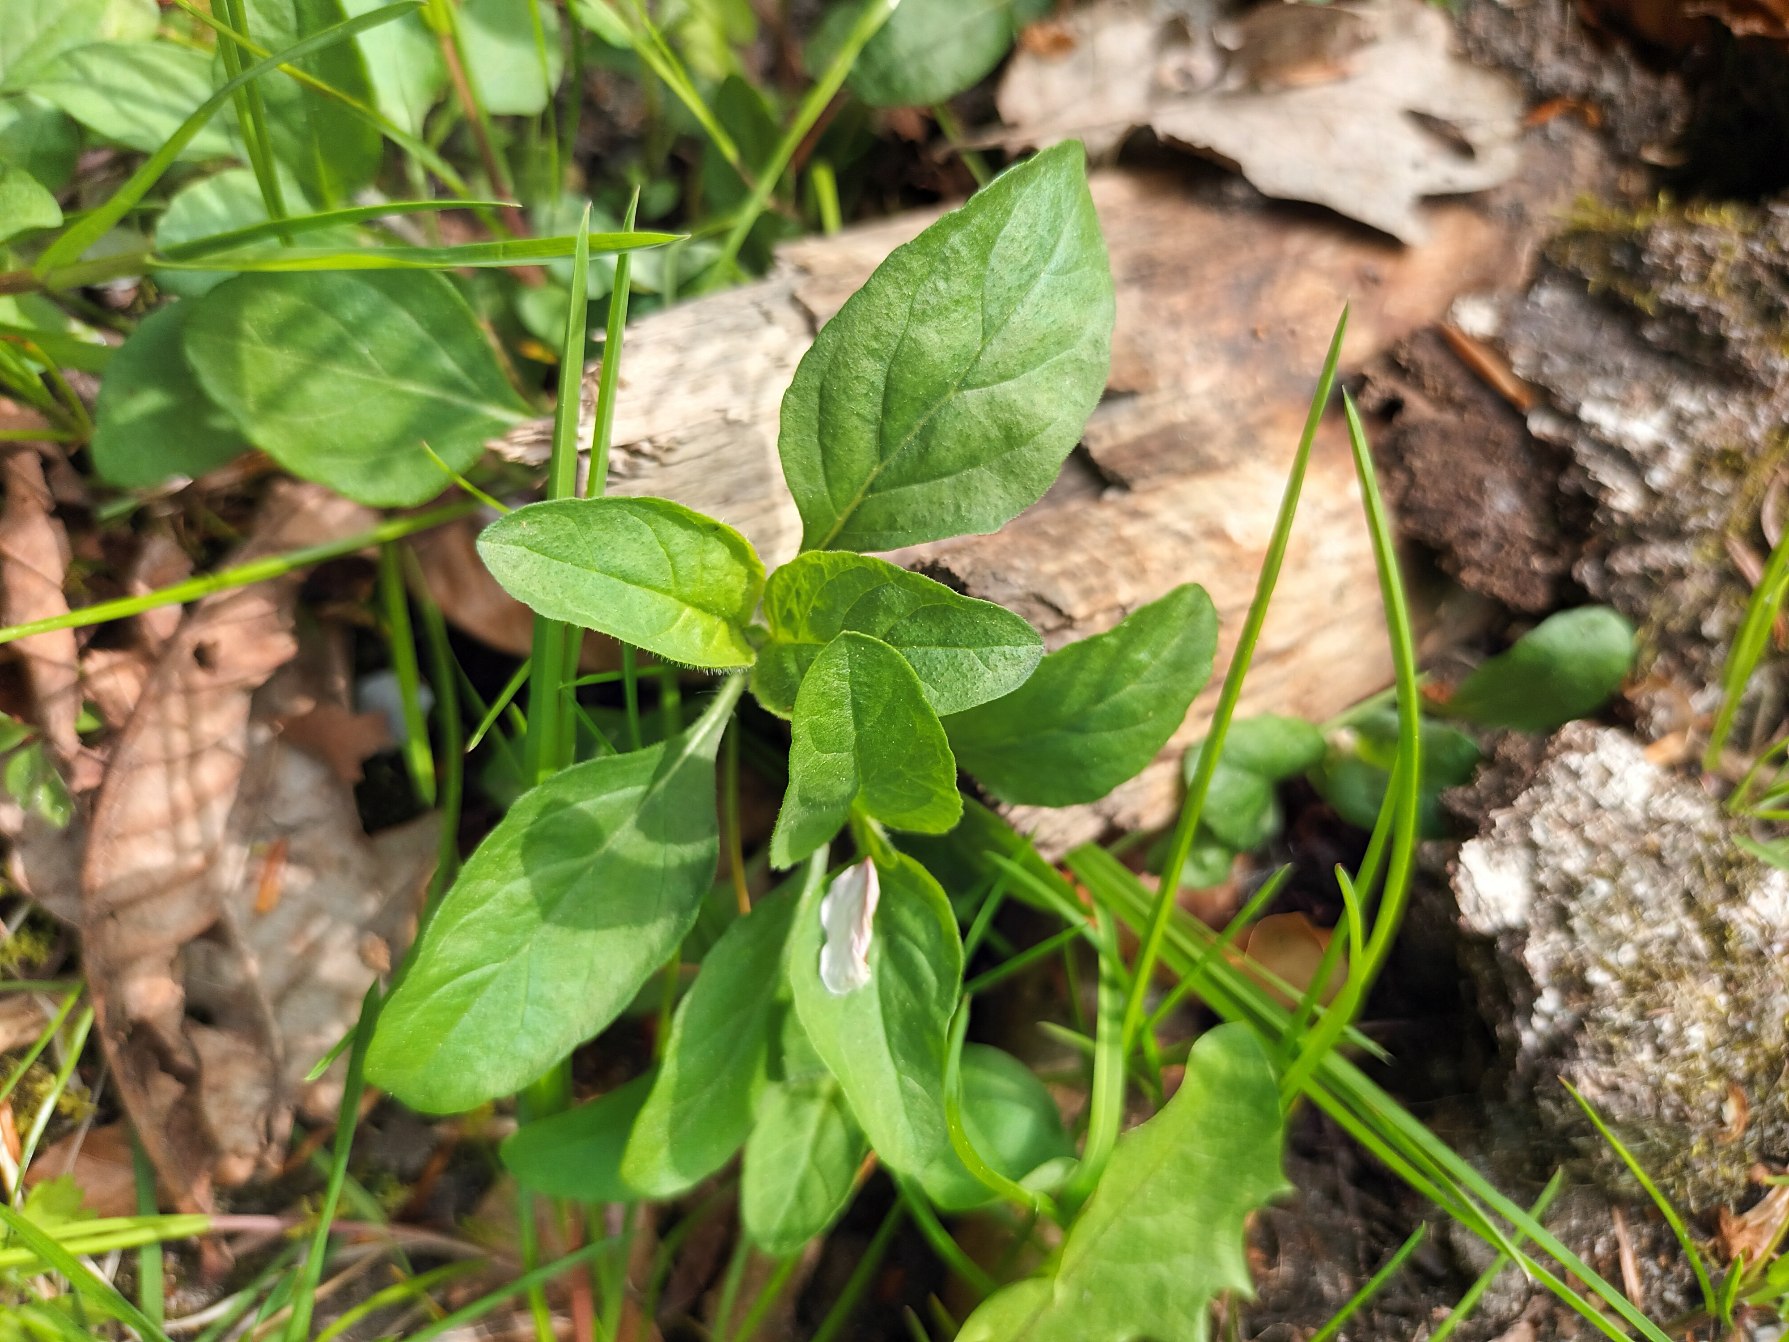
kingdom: Plantae
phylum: Tracheophyta
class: Magnoliopsida
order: Lamiales
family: Lamiaceae
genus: Prunella
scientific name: Prunella vulgaris
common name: Almindelig brunelle
